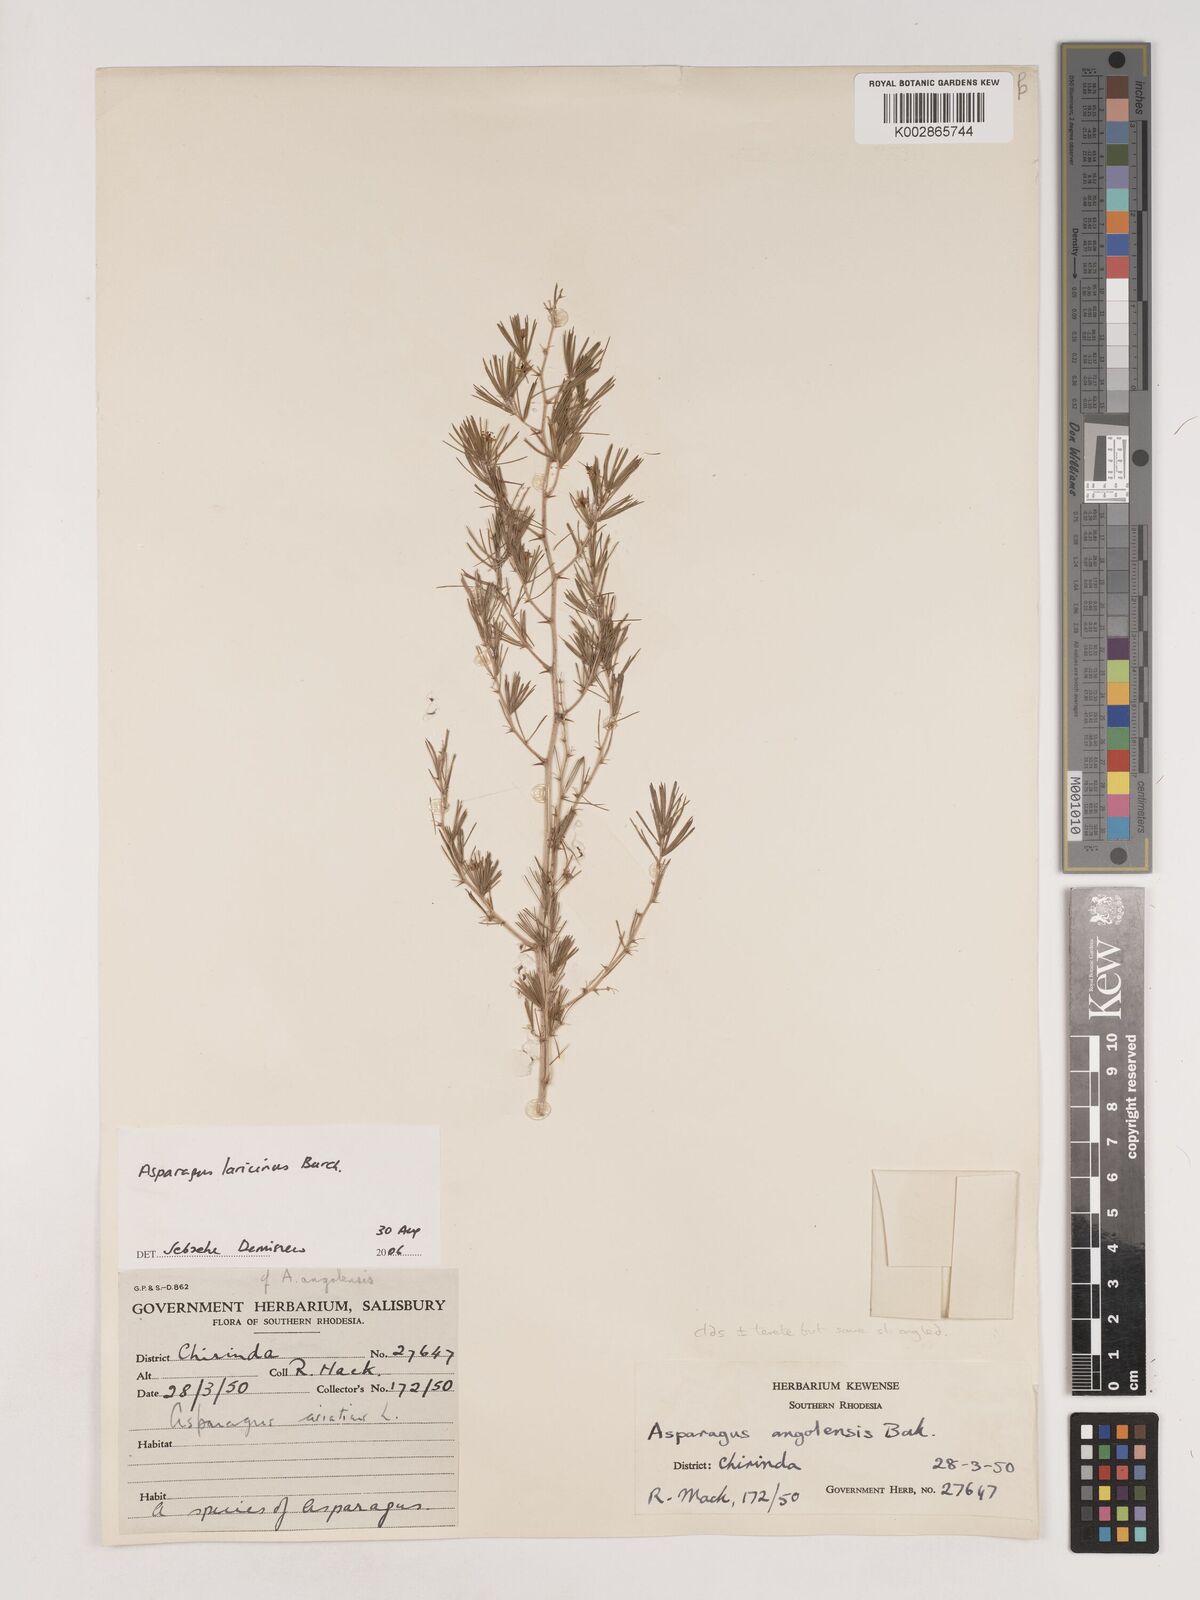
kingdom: Plantae
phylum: Tracheophyta
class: Liliopsida
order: Asparagales
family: Asparagaceae
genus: Asparagus
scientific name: Asparagus laricinus
